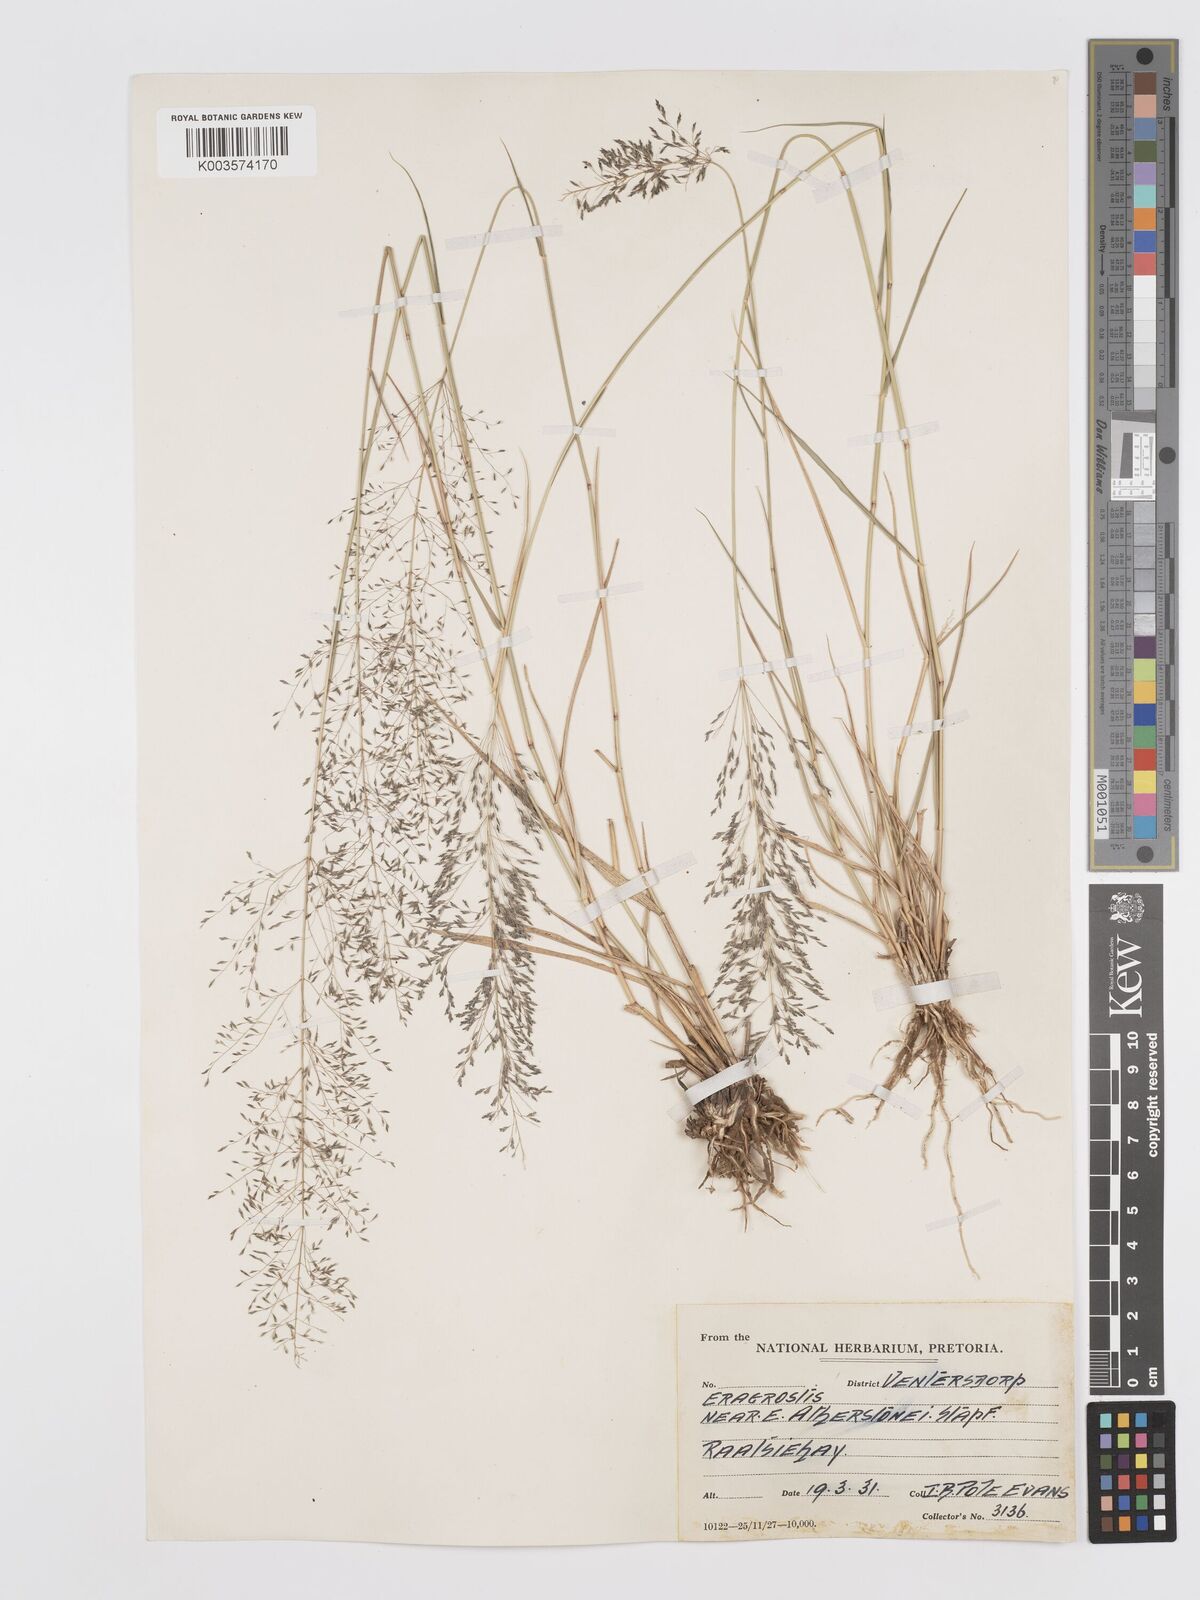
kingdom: Plantae
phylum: Tracheophyta
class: Liliopsida
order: Poales
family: Poaceae
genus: Eragrostis
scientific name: Eragrostis cylindriflora
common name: Cylinderflower lovegrass
